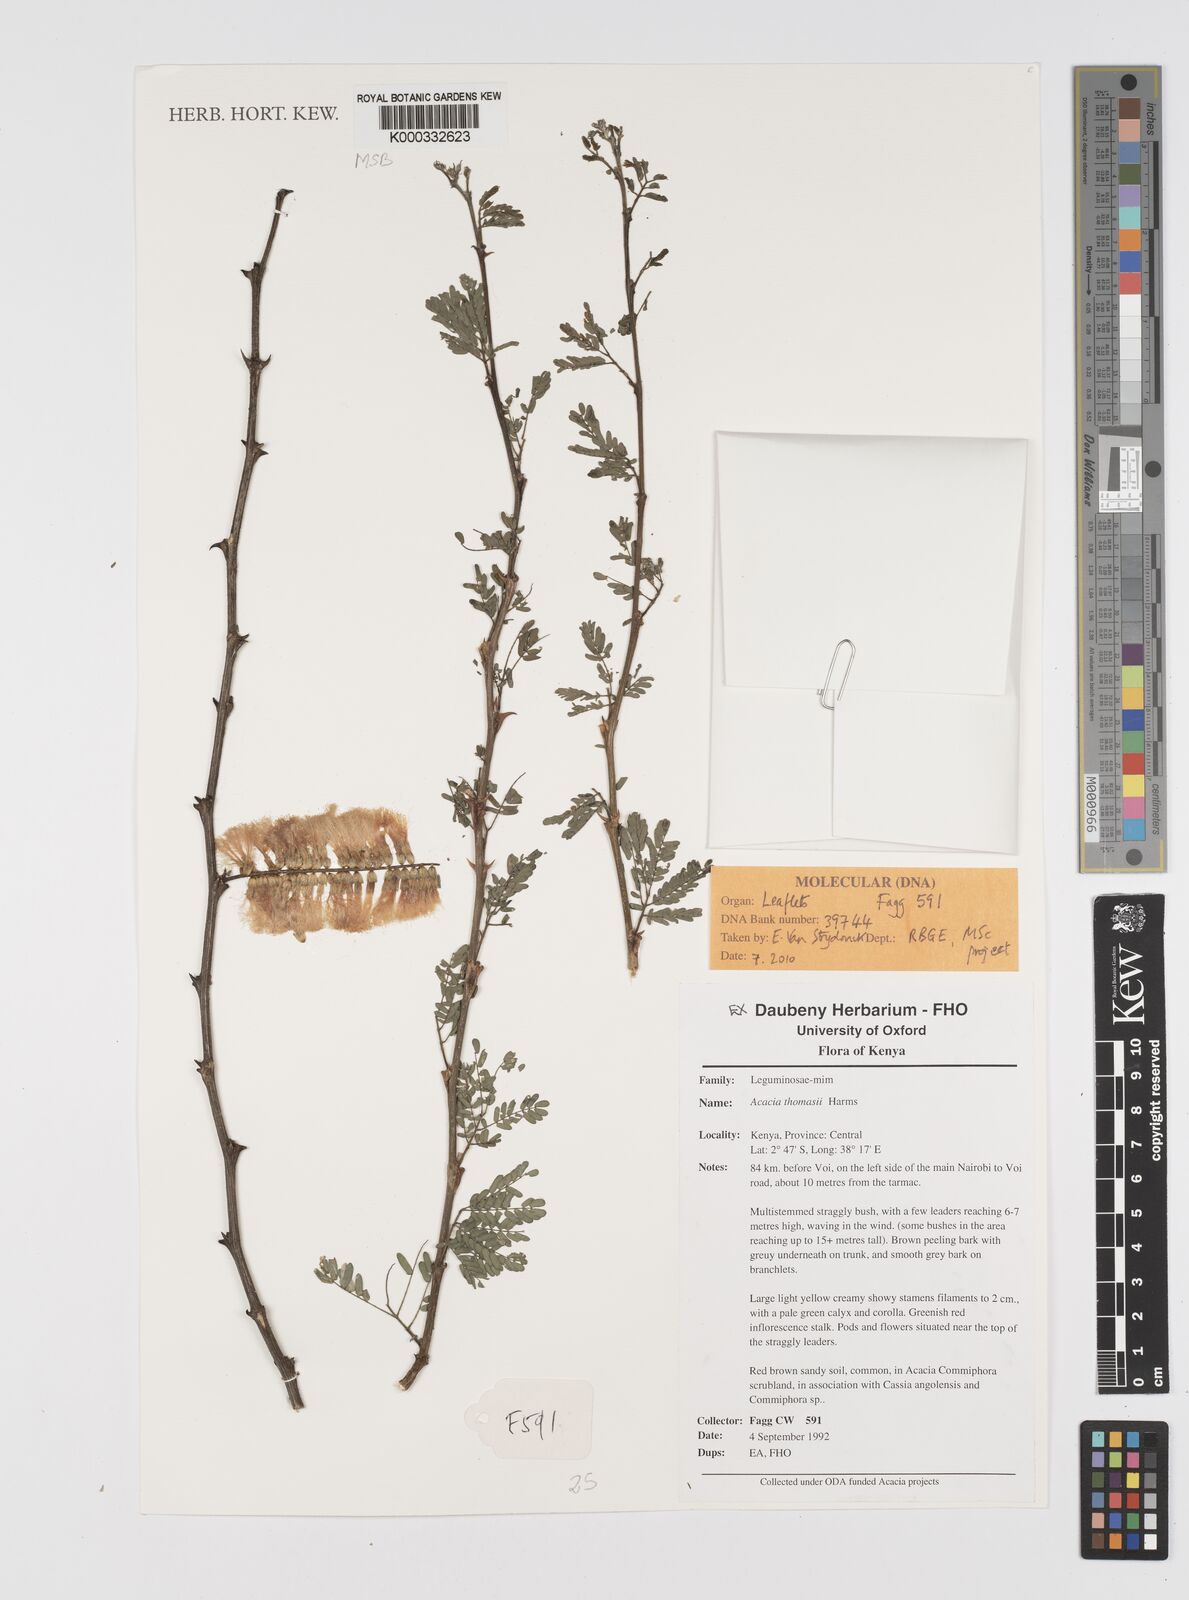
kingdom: Plantae
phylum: Tracheophyta
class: Magnoliopsida
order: Fabales
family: Fabaceae
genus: Senegalia
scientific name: Senegalia thomasii
